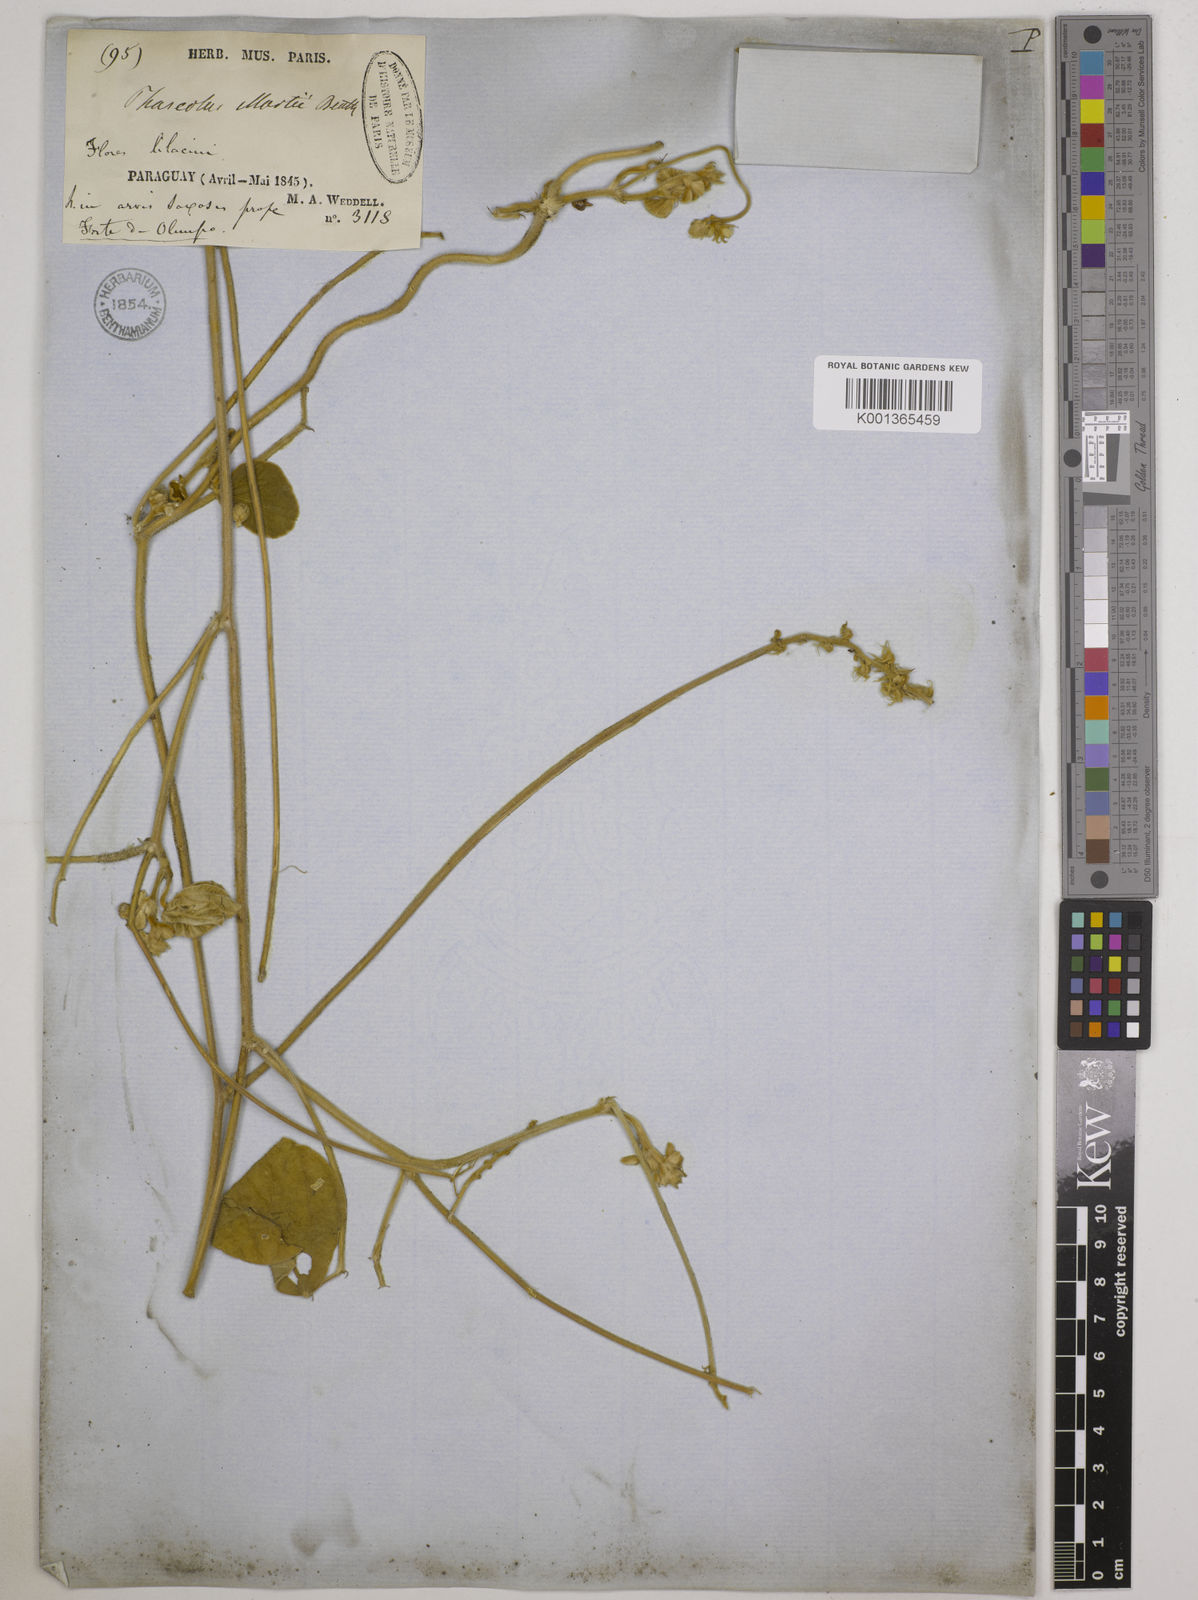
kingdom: Plantae
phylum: Tracheophyta
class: Magnoliopsida
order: Fabales
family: Fabaceae
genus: Macroptilium
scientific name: Macroptilium martii
